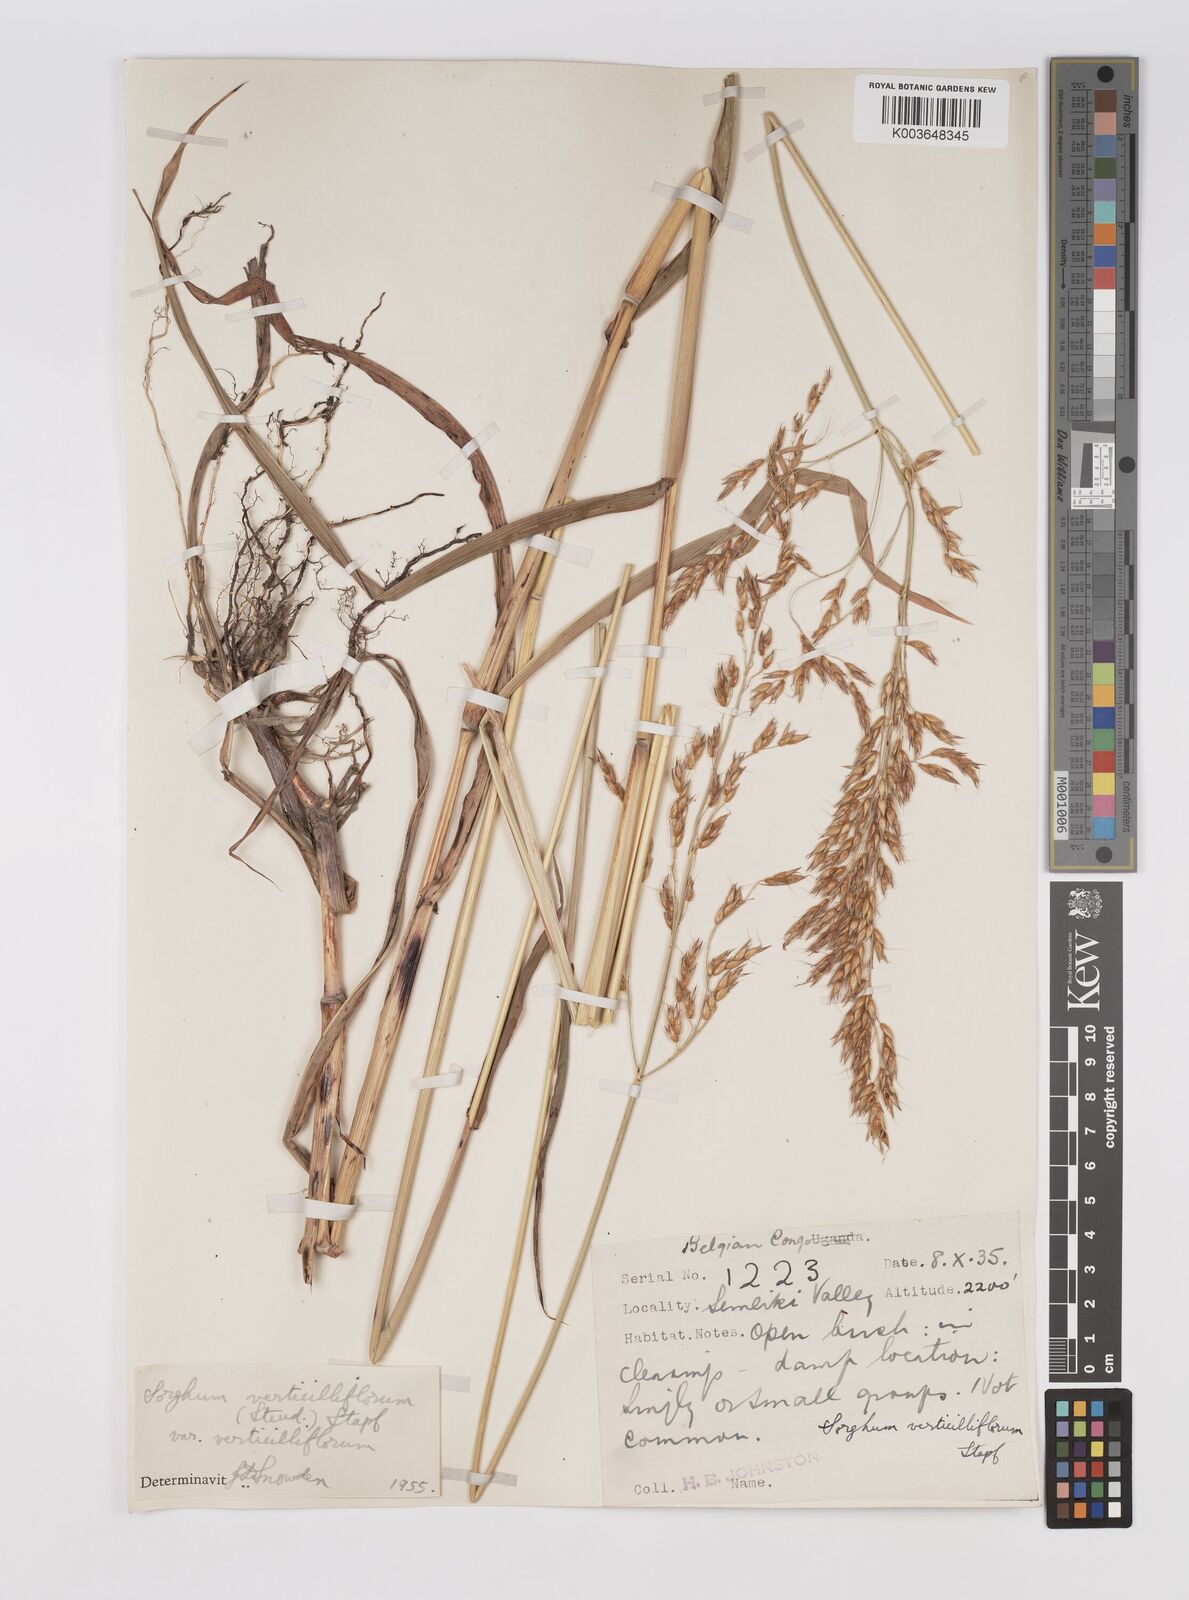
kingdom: Plantae
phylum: Tracheophyta
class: Liliopsida
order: Poales
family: Poaceae
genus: Sorghum
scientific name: Sorghum arundinaceum
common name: Sorghum
